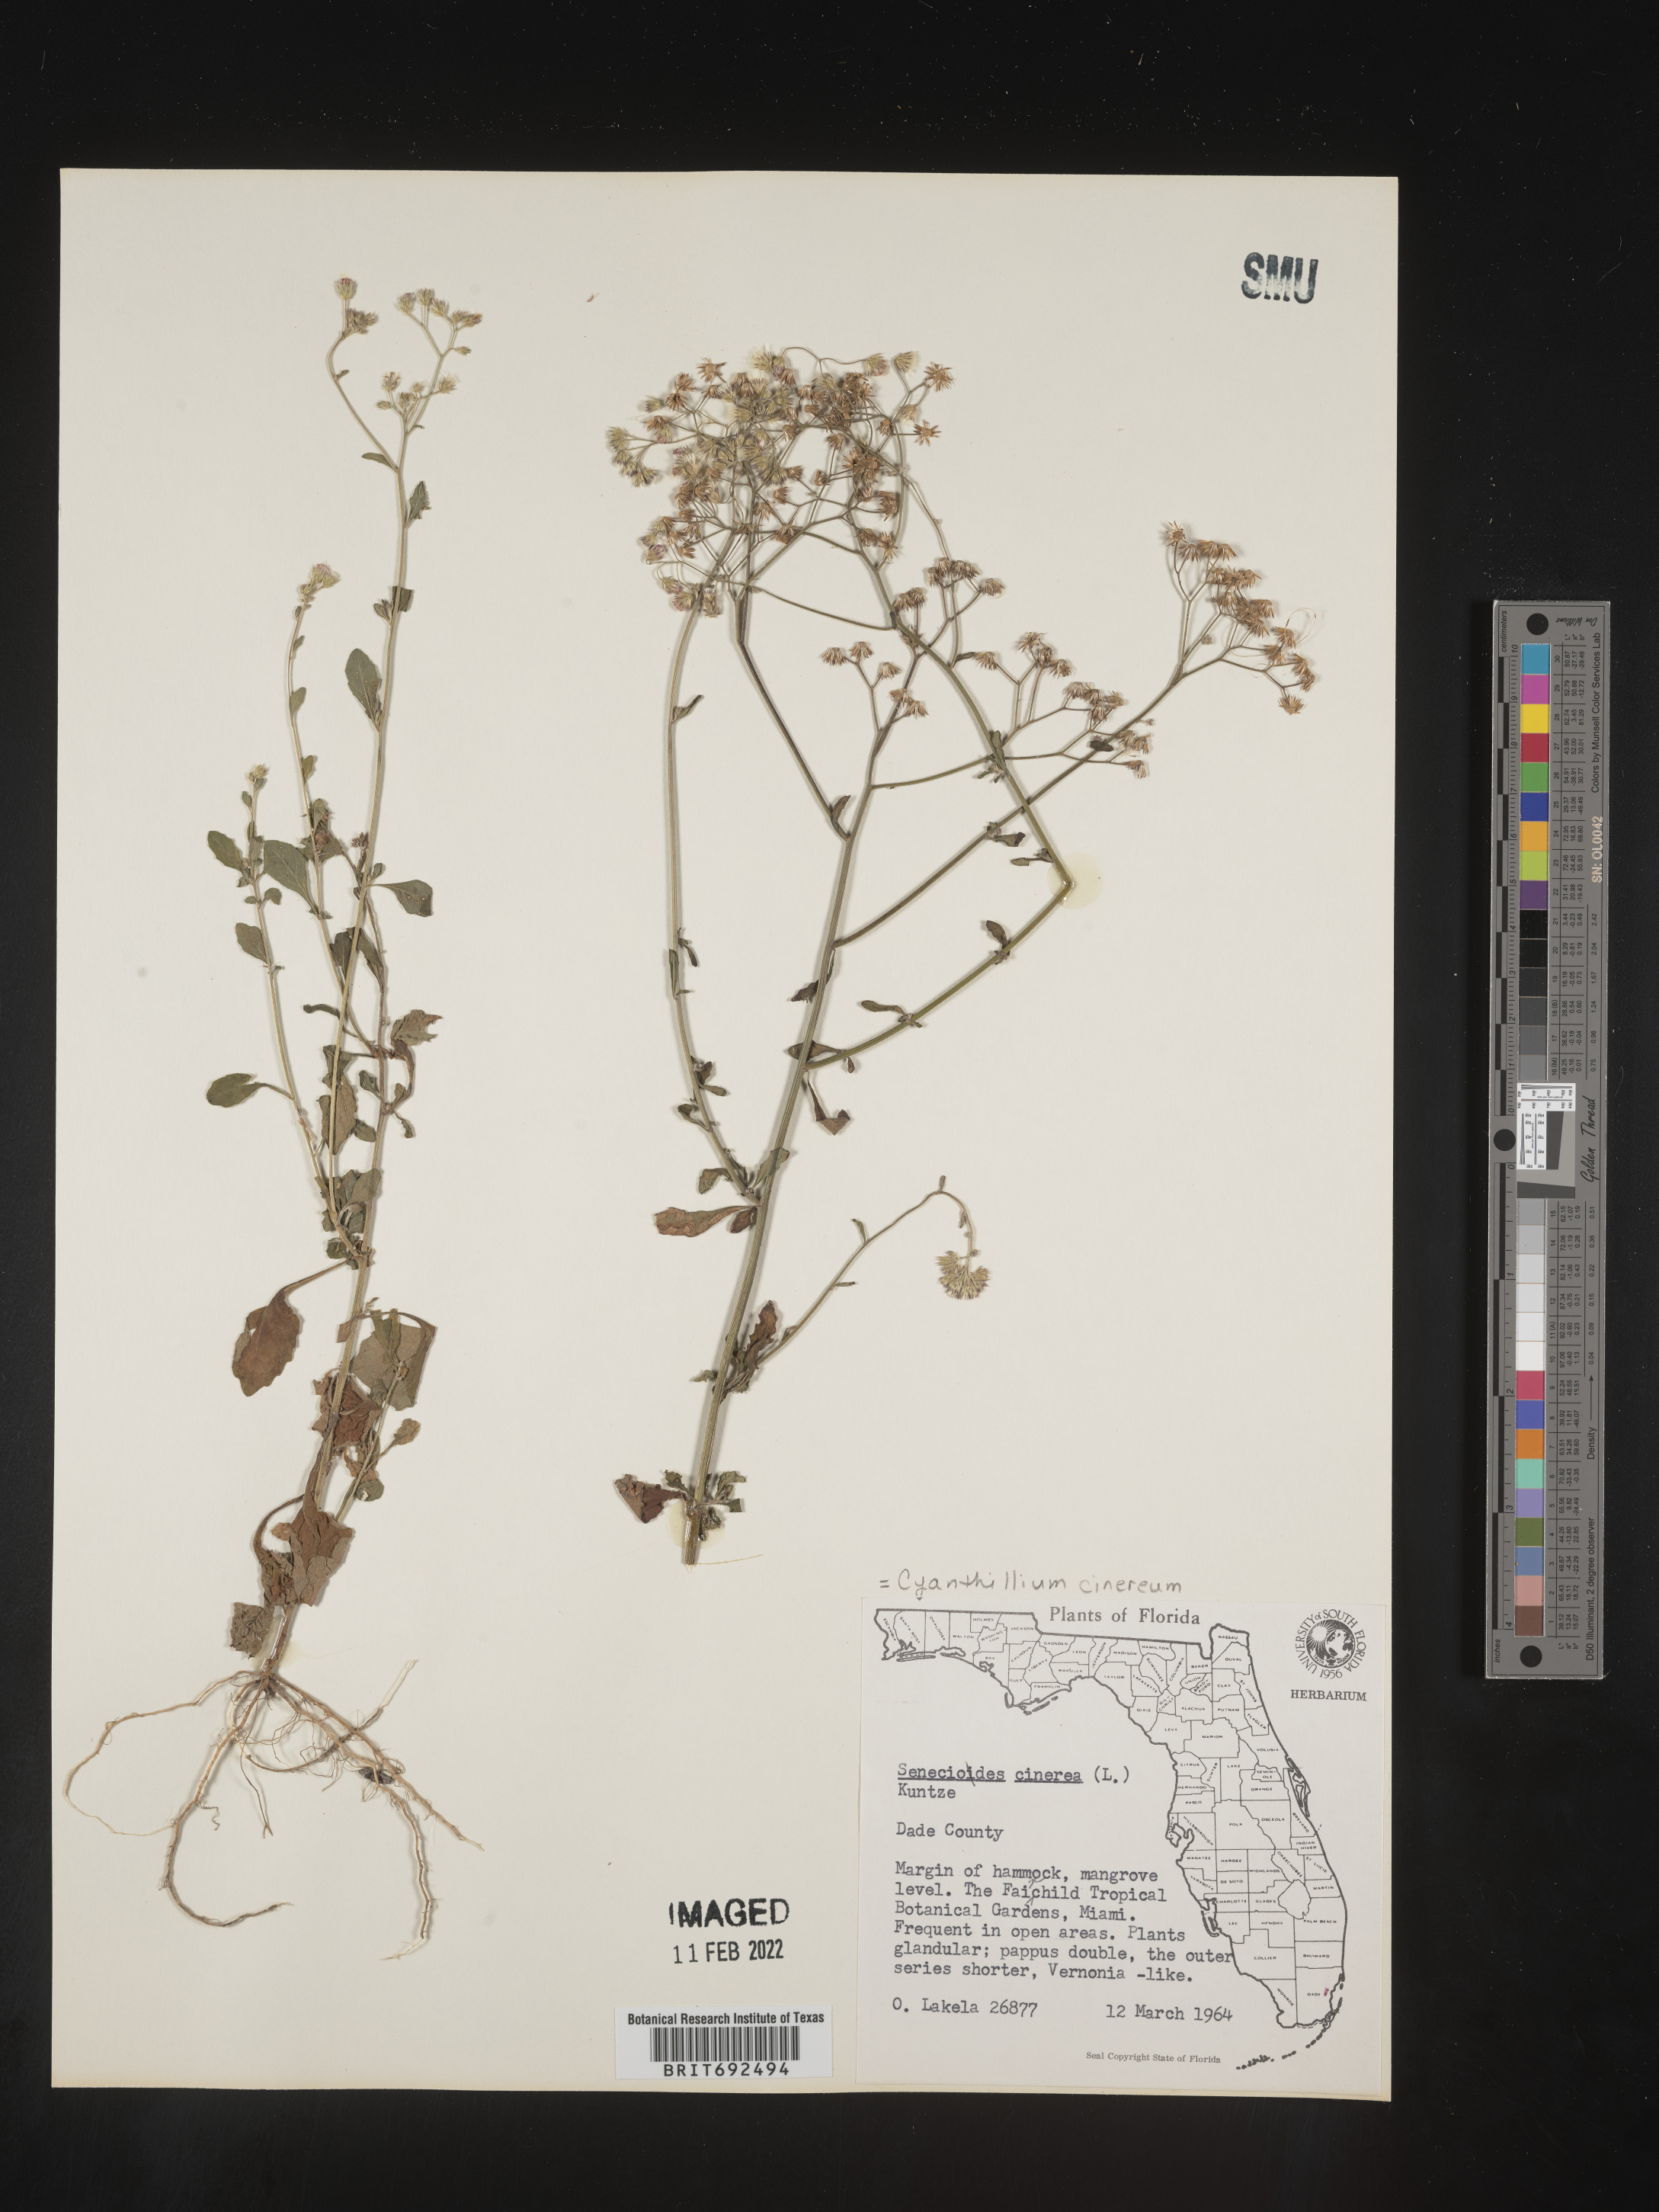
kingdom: Plantae
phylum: Tracheophyta
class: Magnoliopsida
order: Asterales
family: Asteraceae
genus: Cyanthillium
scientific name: Cyanthillium cinereum
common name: Little ironweed
